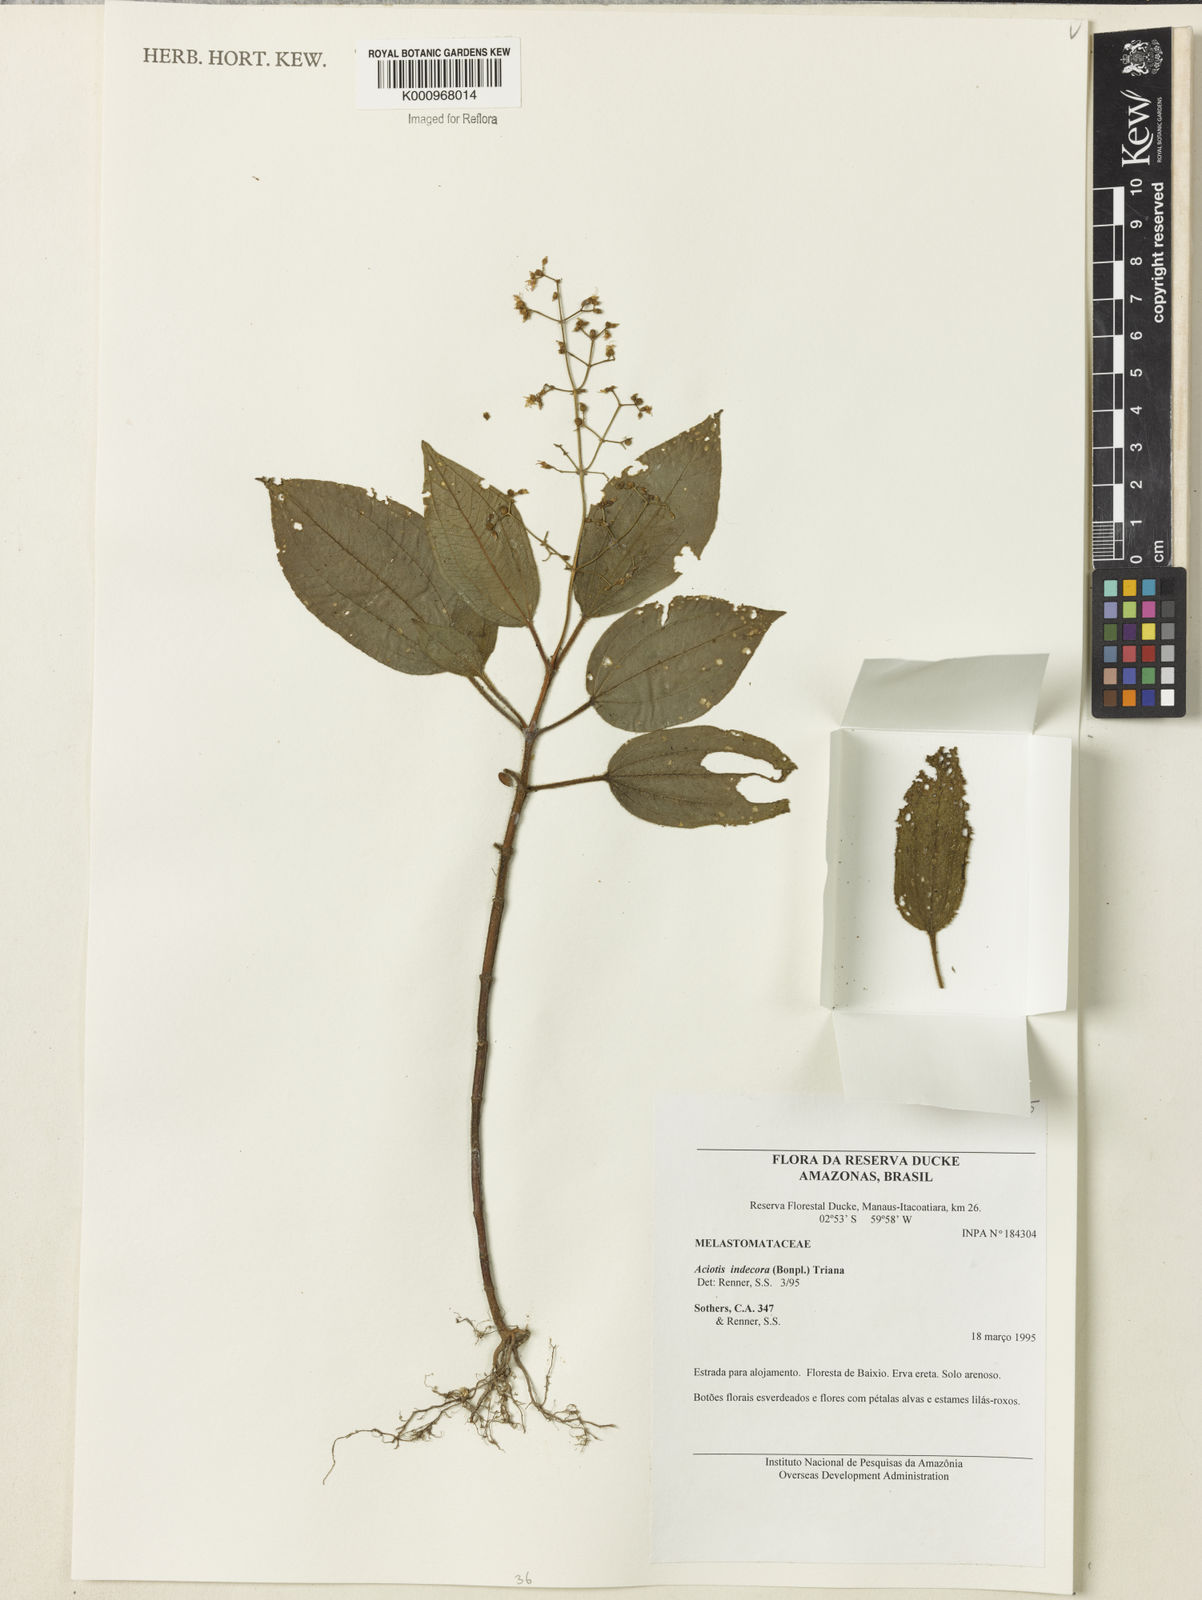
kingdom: Plantae
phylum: Tracheophyta
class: Magnoliopsida
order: Myrtales
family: Melastomataceae
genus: Aciotis
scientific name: Aciotis indecora
